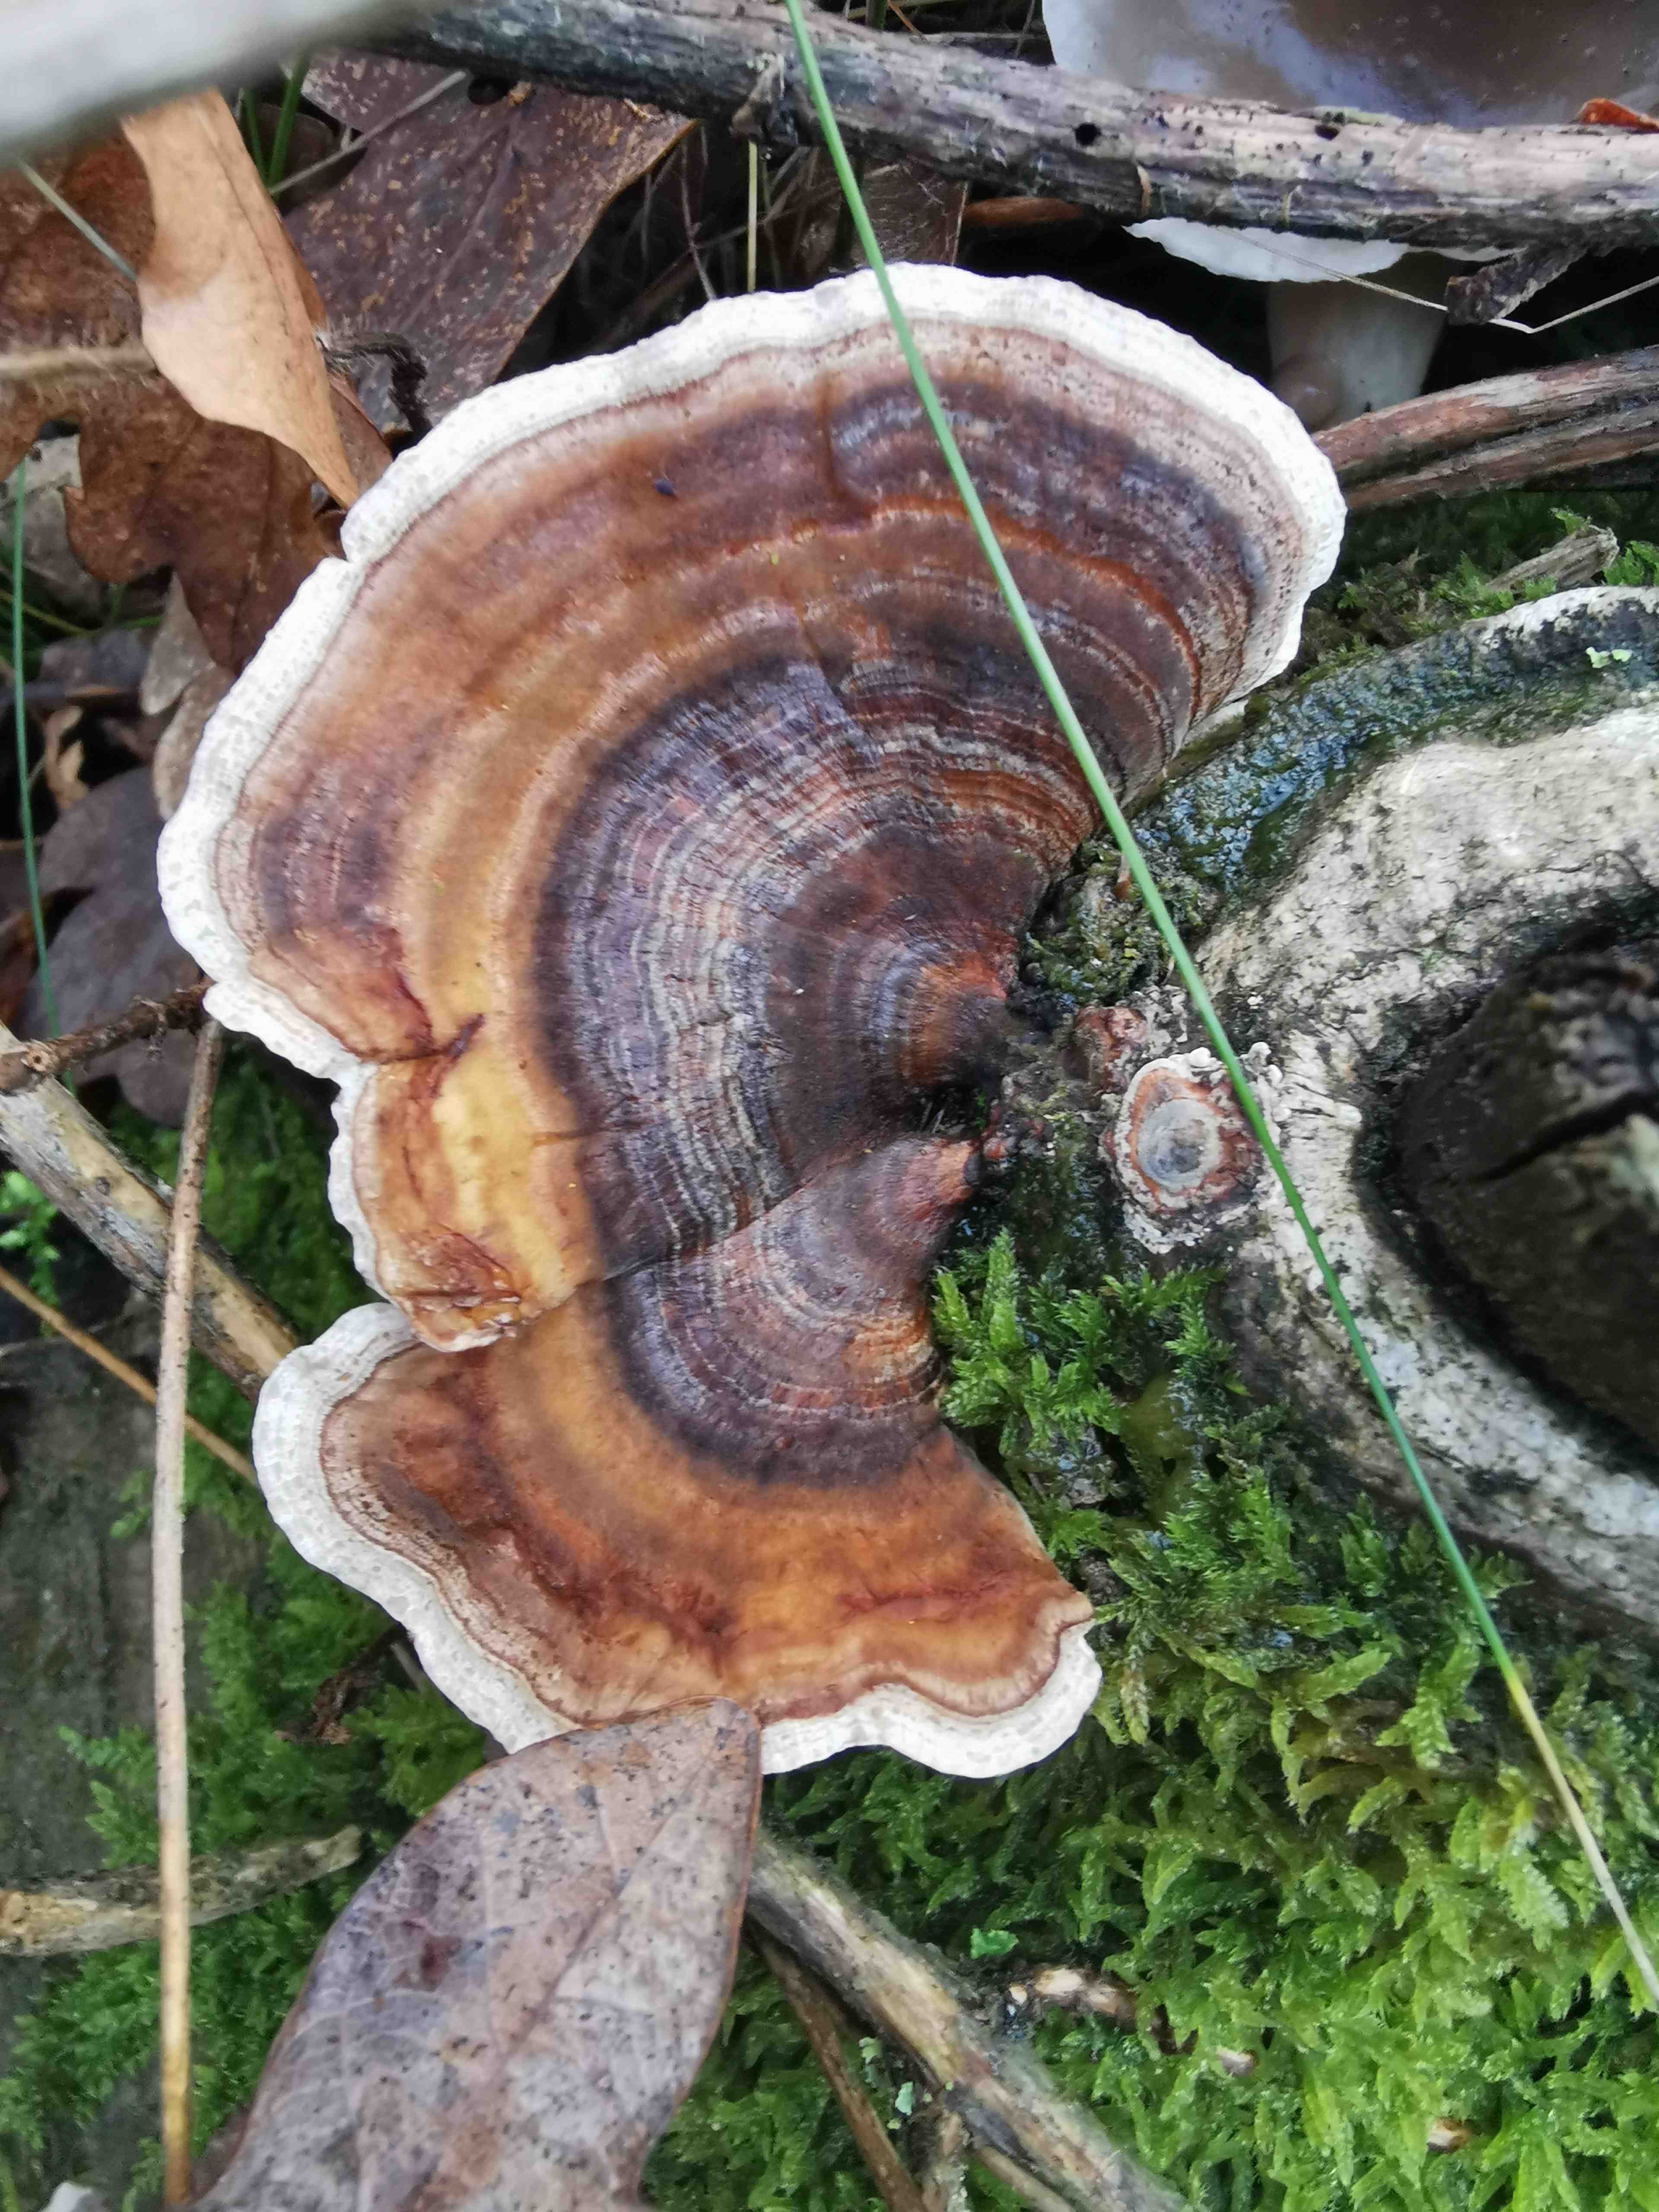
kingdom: Fungi
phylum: Basidiomycota
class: Agaricomycetes
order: Polyporales
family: Polyporaceae
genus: Trametes
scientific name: Trametes versicolor
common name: broget læderporesvamp
